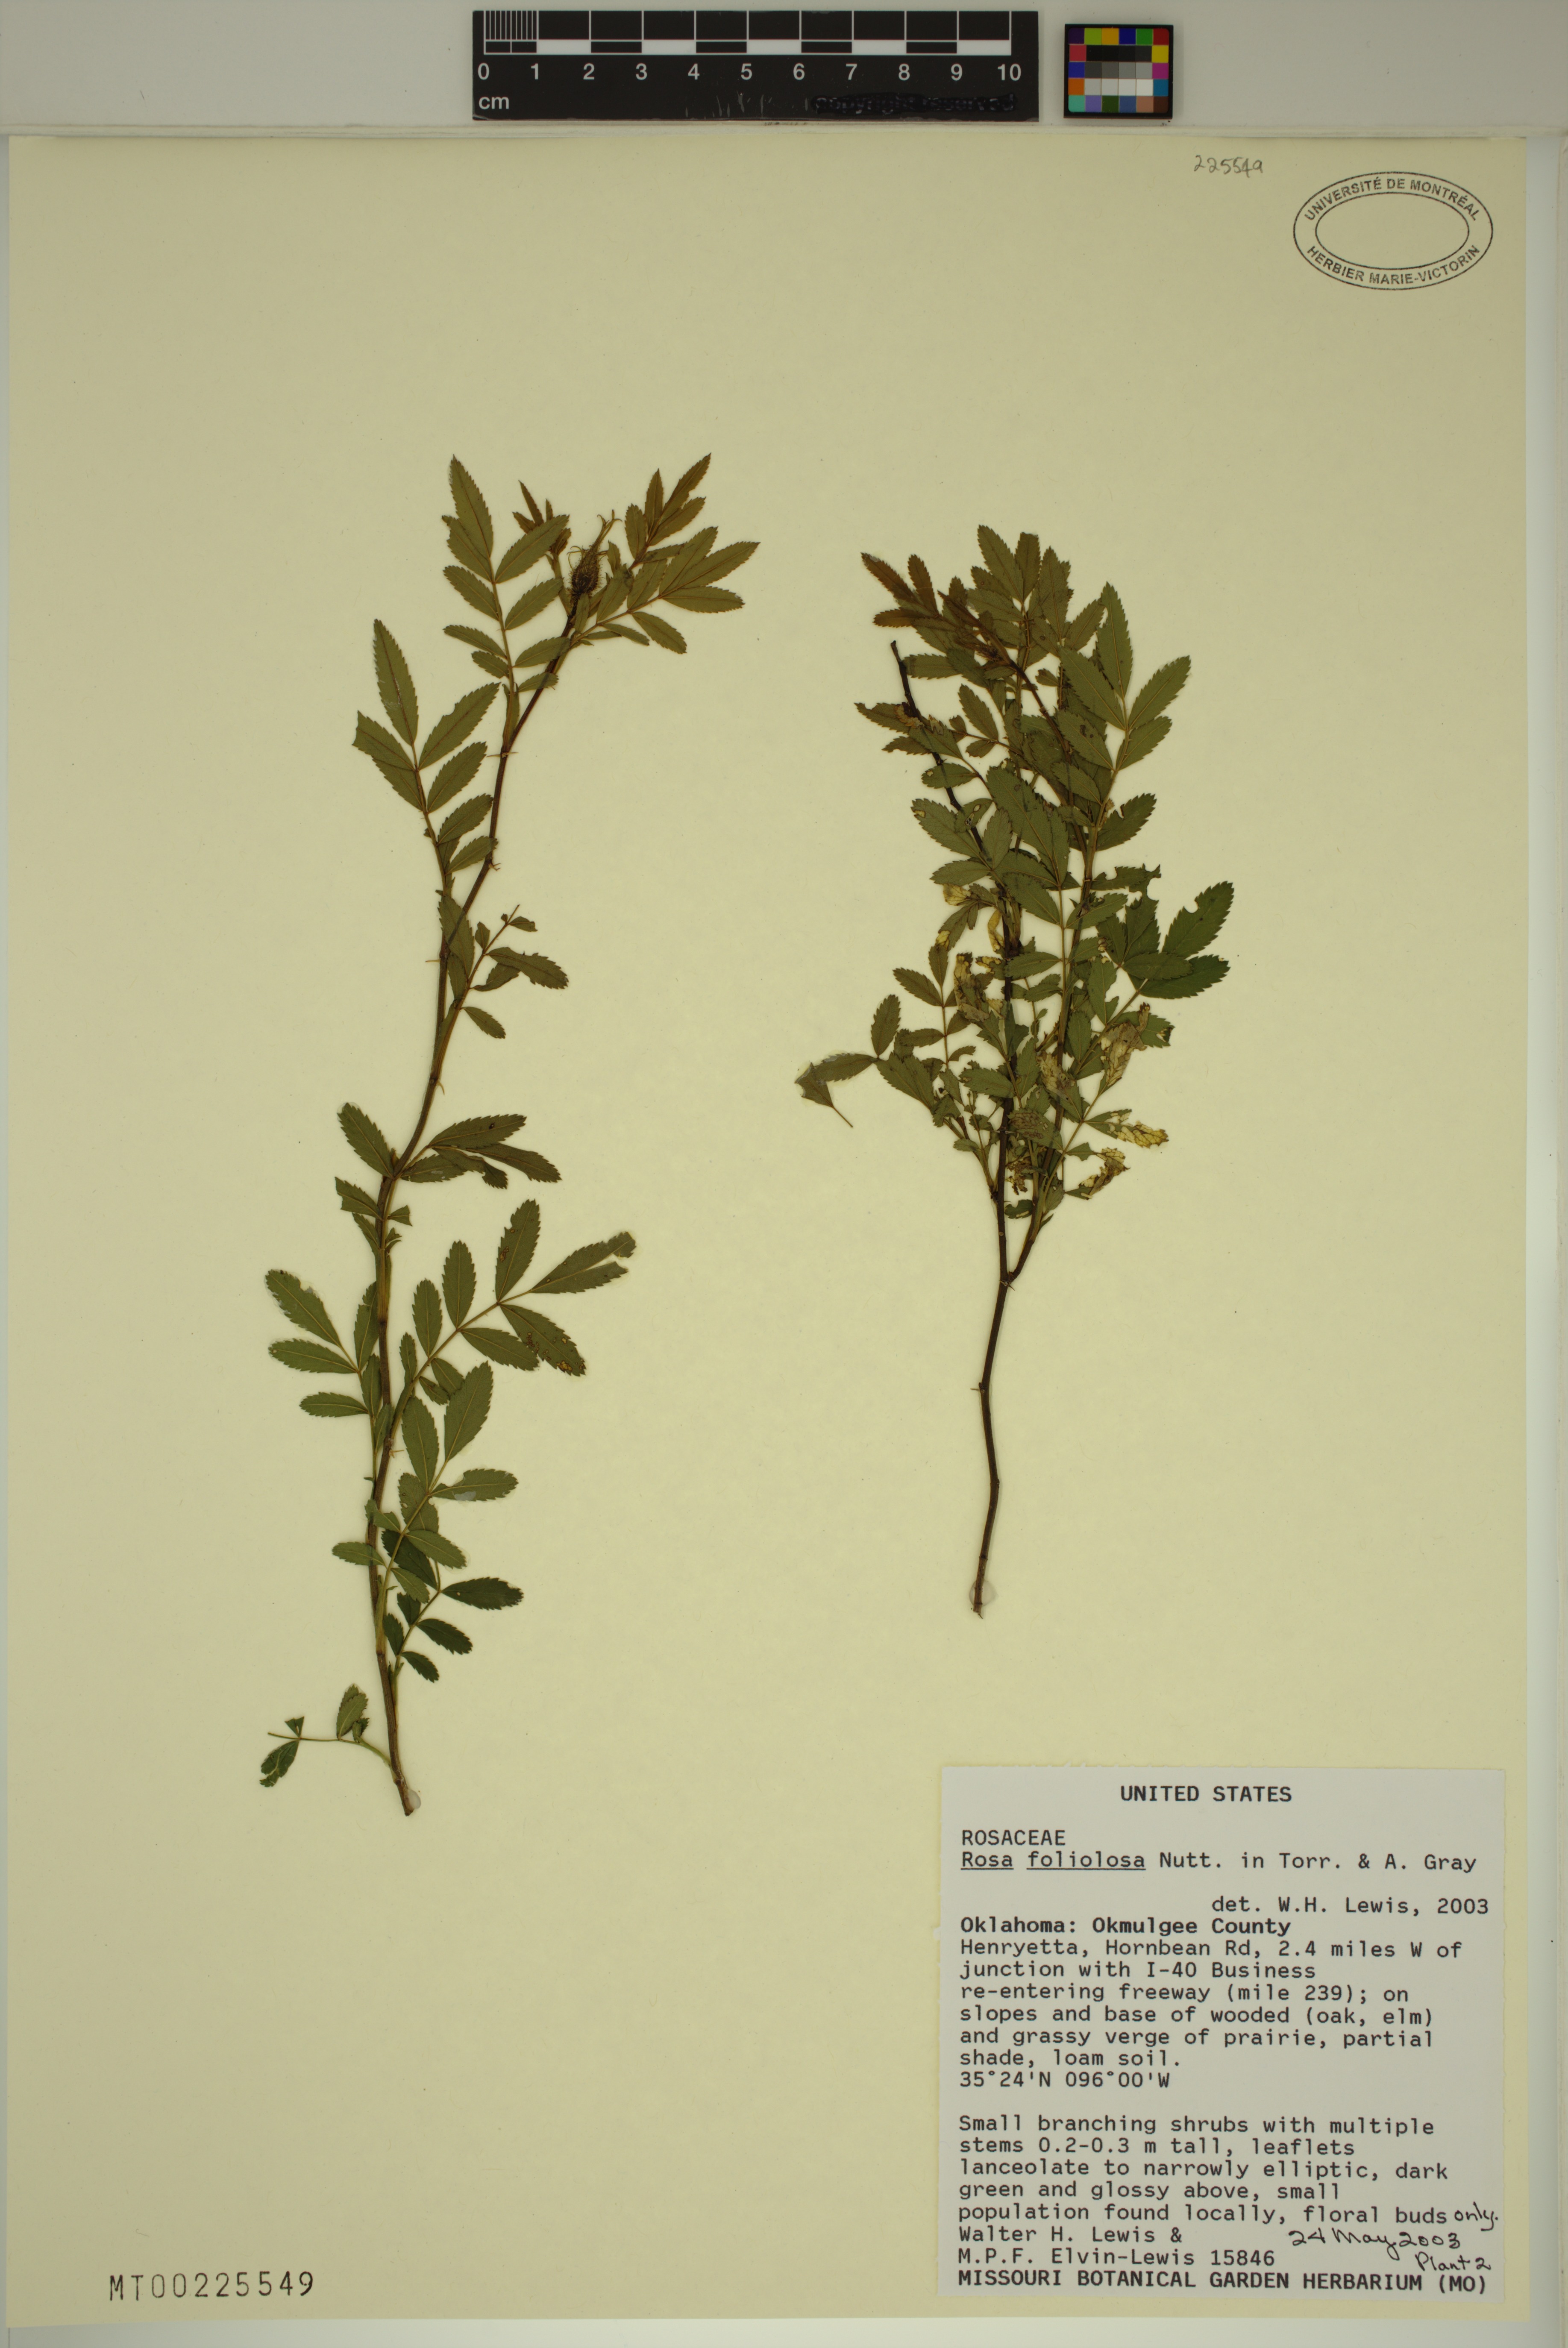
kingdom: Plantae
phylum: Tracheophyta
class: Magnoliopsida
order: Rosales
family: Rosaceae
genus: Rosa
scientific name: Rosa foliolosa
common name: White prairie rose
